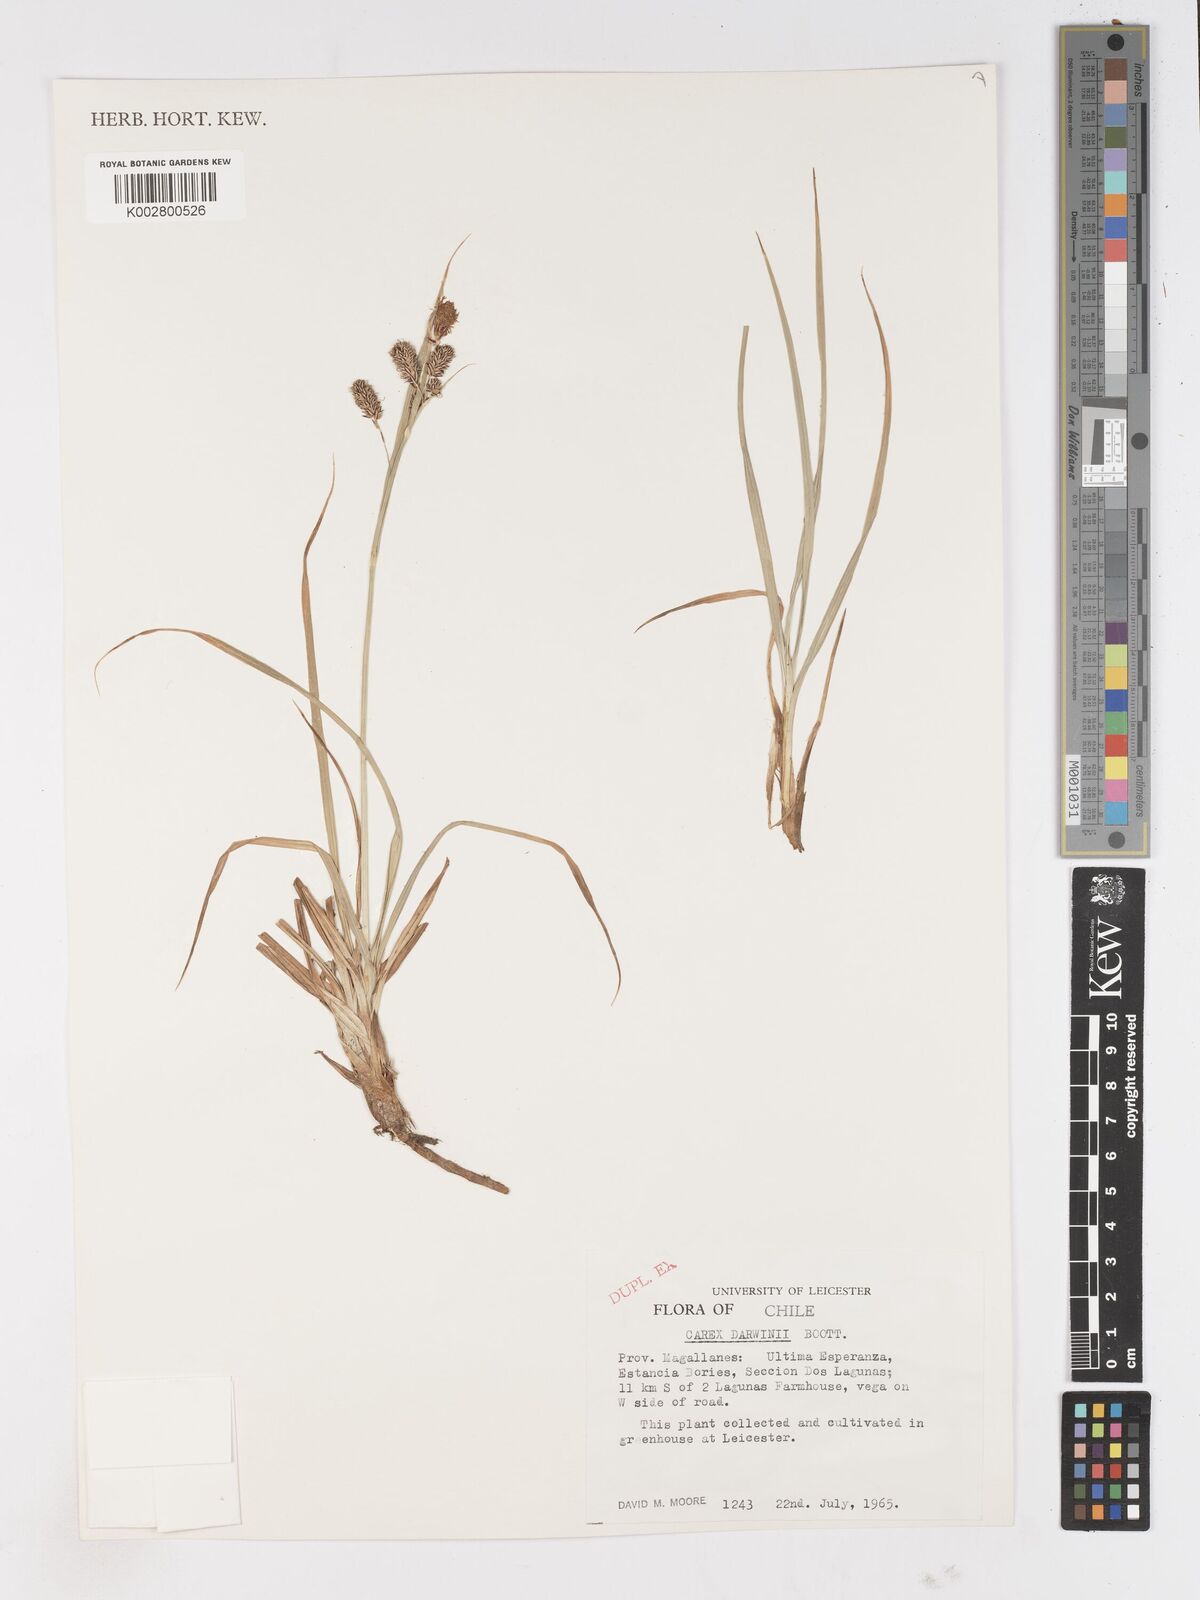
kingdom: Plantae
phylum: Tracheophyta
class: Liliopsida
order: Poales
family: Cyperaceae
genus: Carex
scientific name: Carex darwinii
